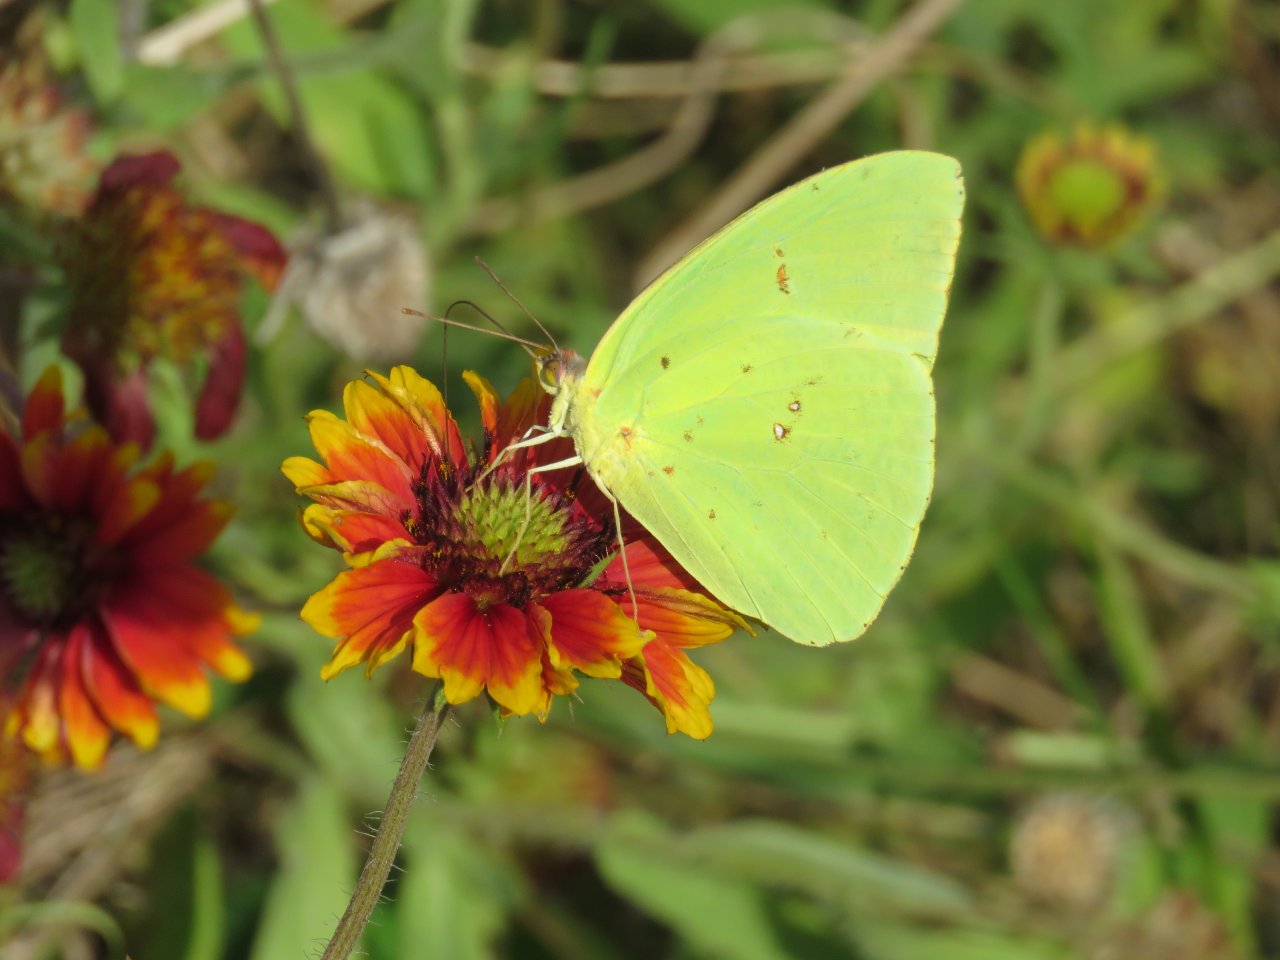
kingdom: Animalia
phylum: Arthropoda
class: Insecta
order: Lepidoptera
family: Pieridae
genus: Phoebis
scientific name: Phoebis sennae
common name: Cloudless Sulphur
